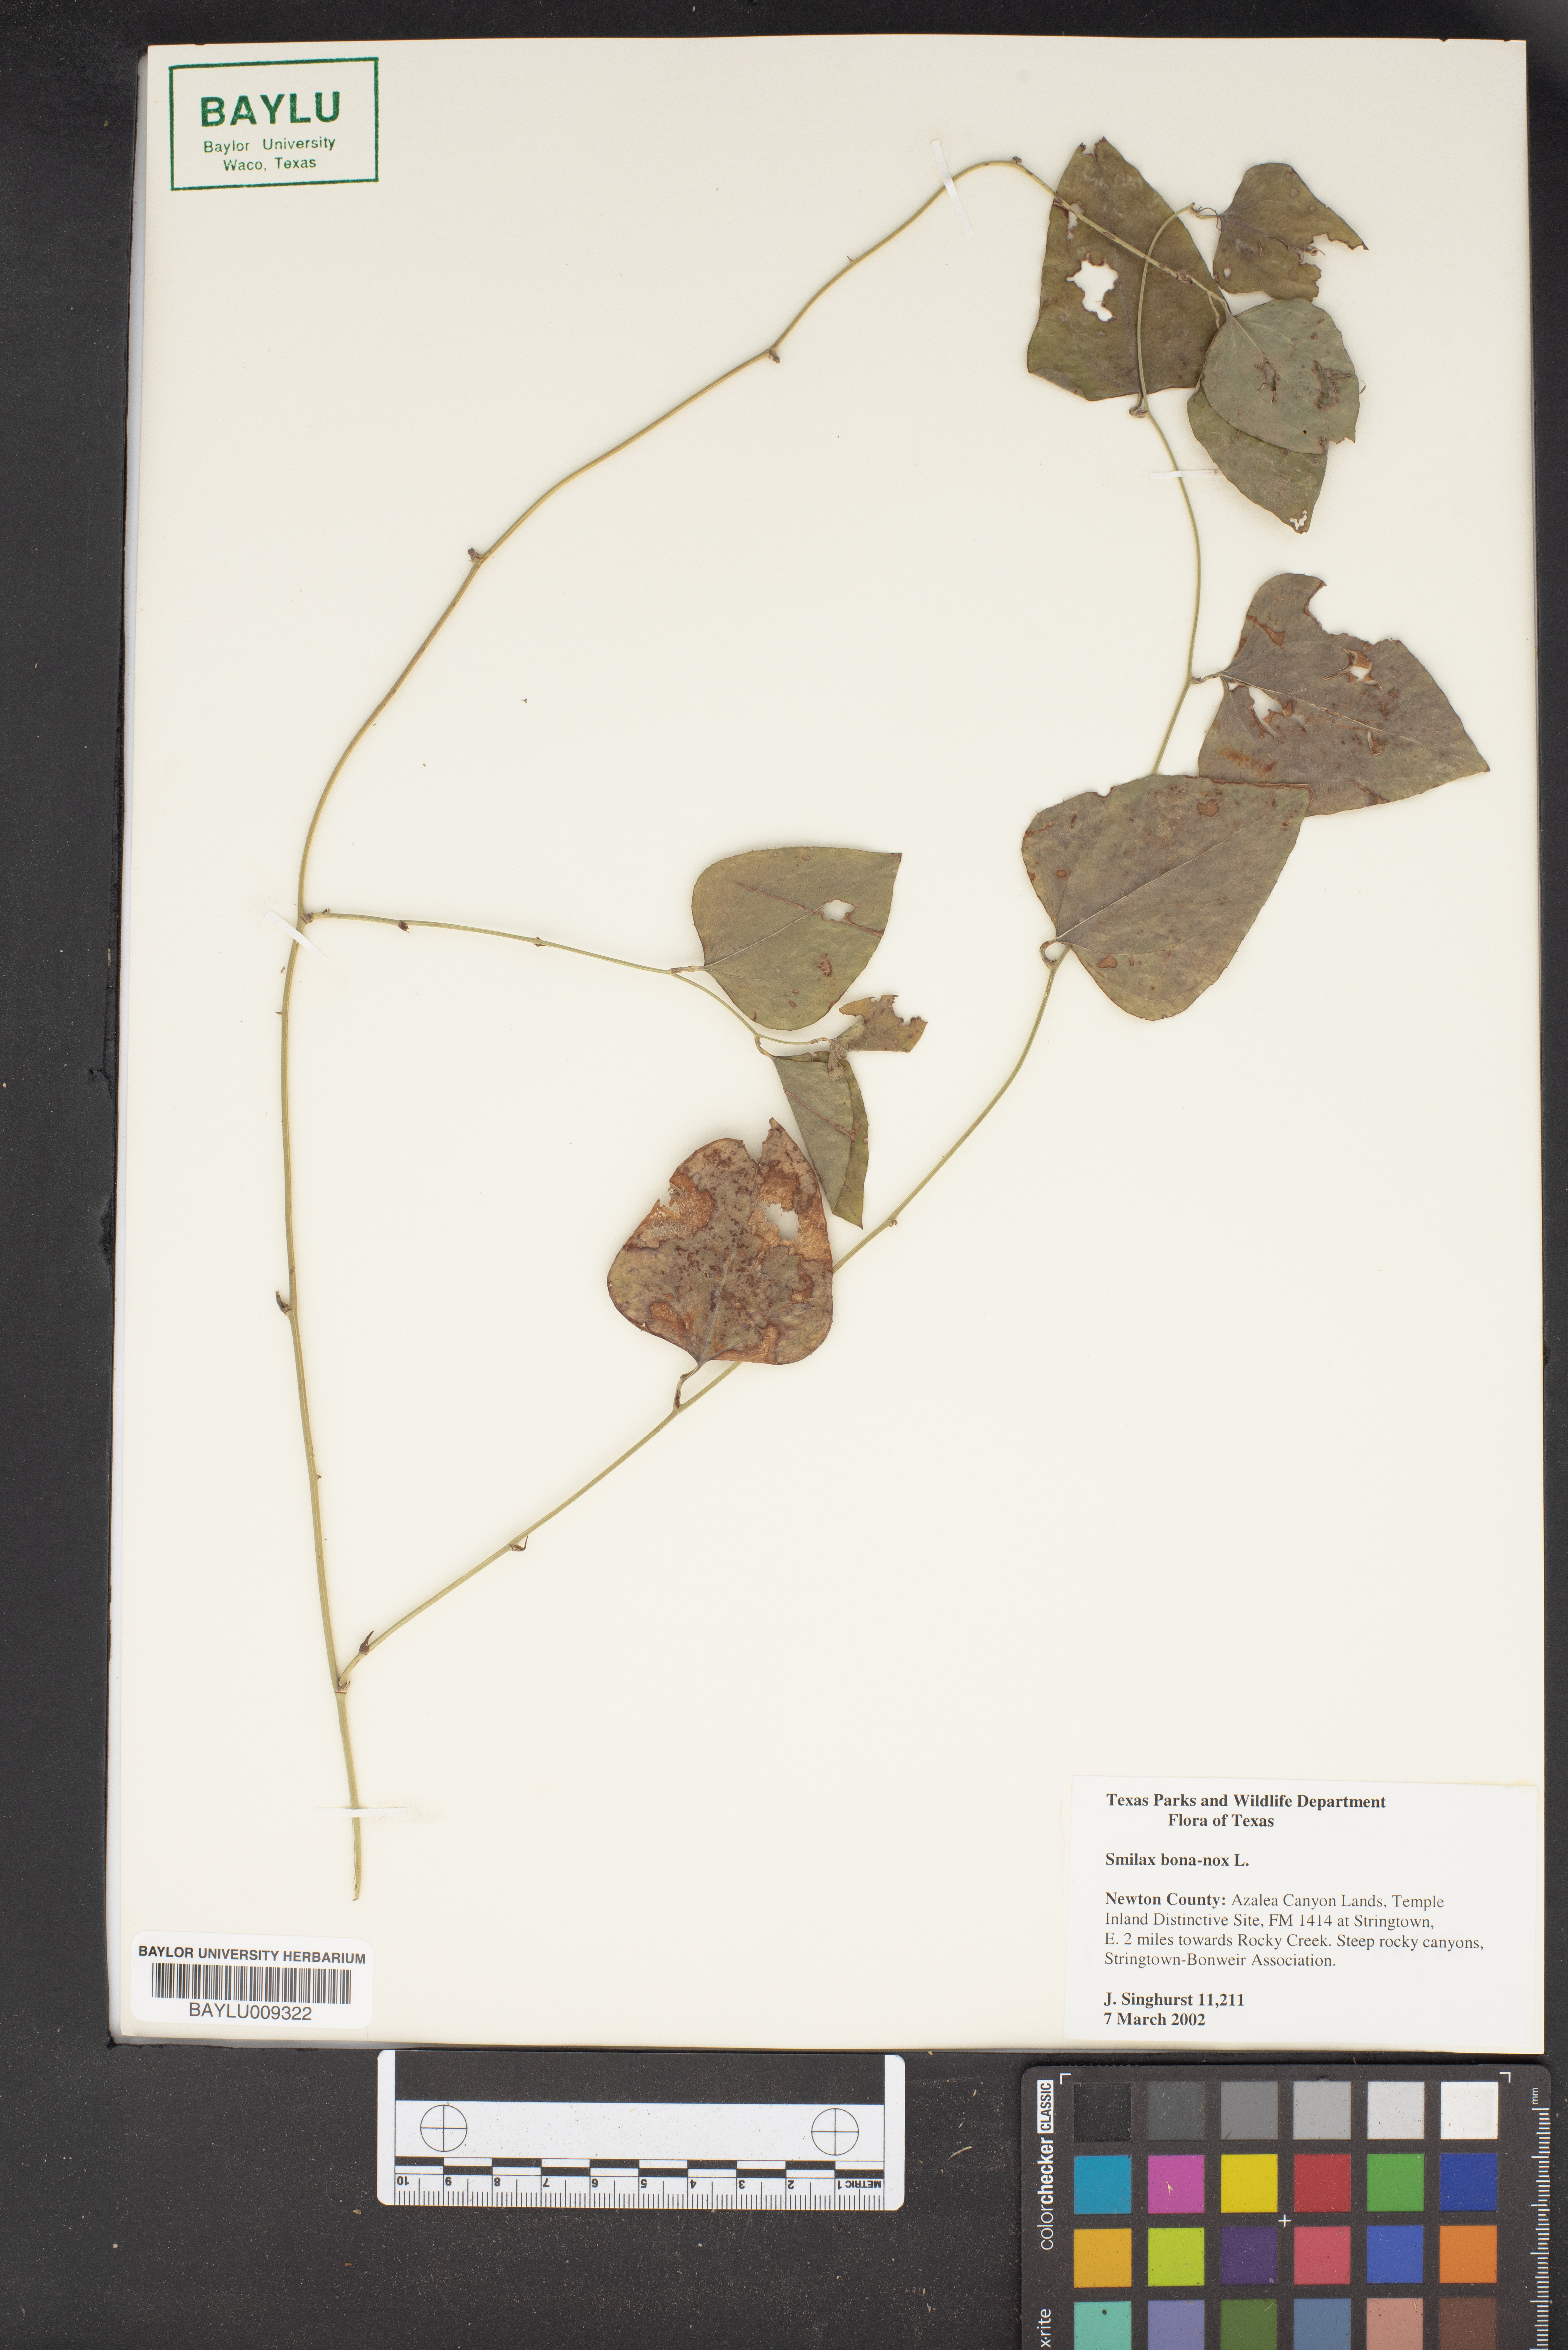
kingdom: Plantae
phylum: Tracheophyta
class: Liliopsida
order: Liliales
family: Smilacaceae
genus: Smilax
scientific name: Smilax bona-nox
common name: Catbrier
